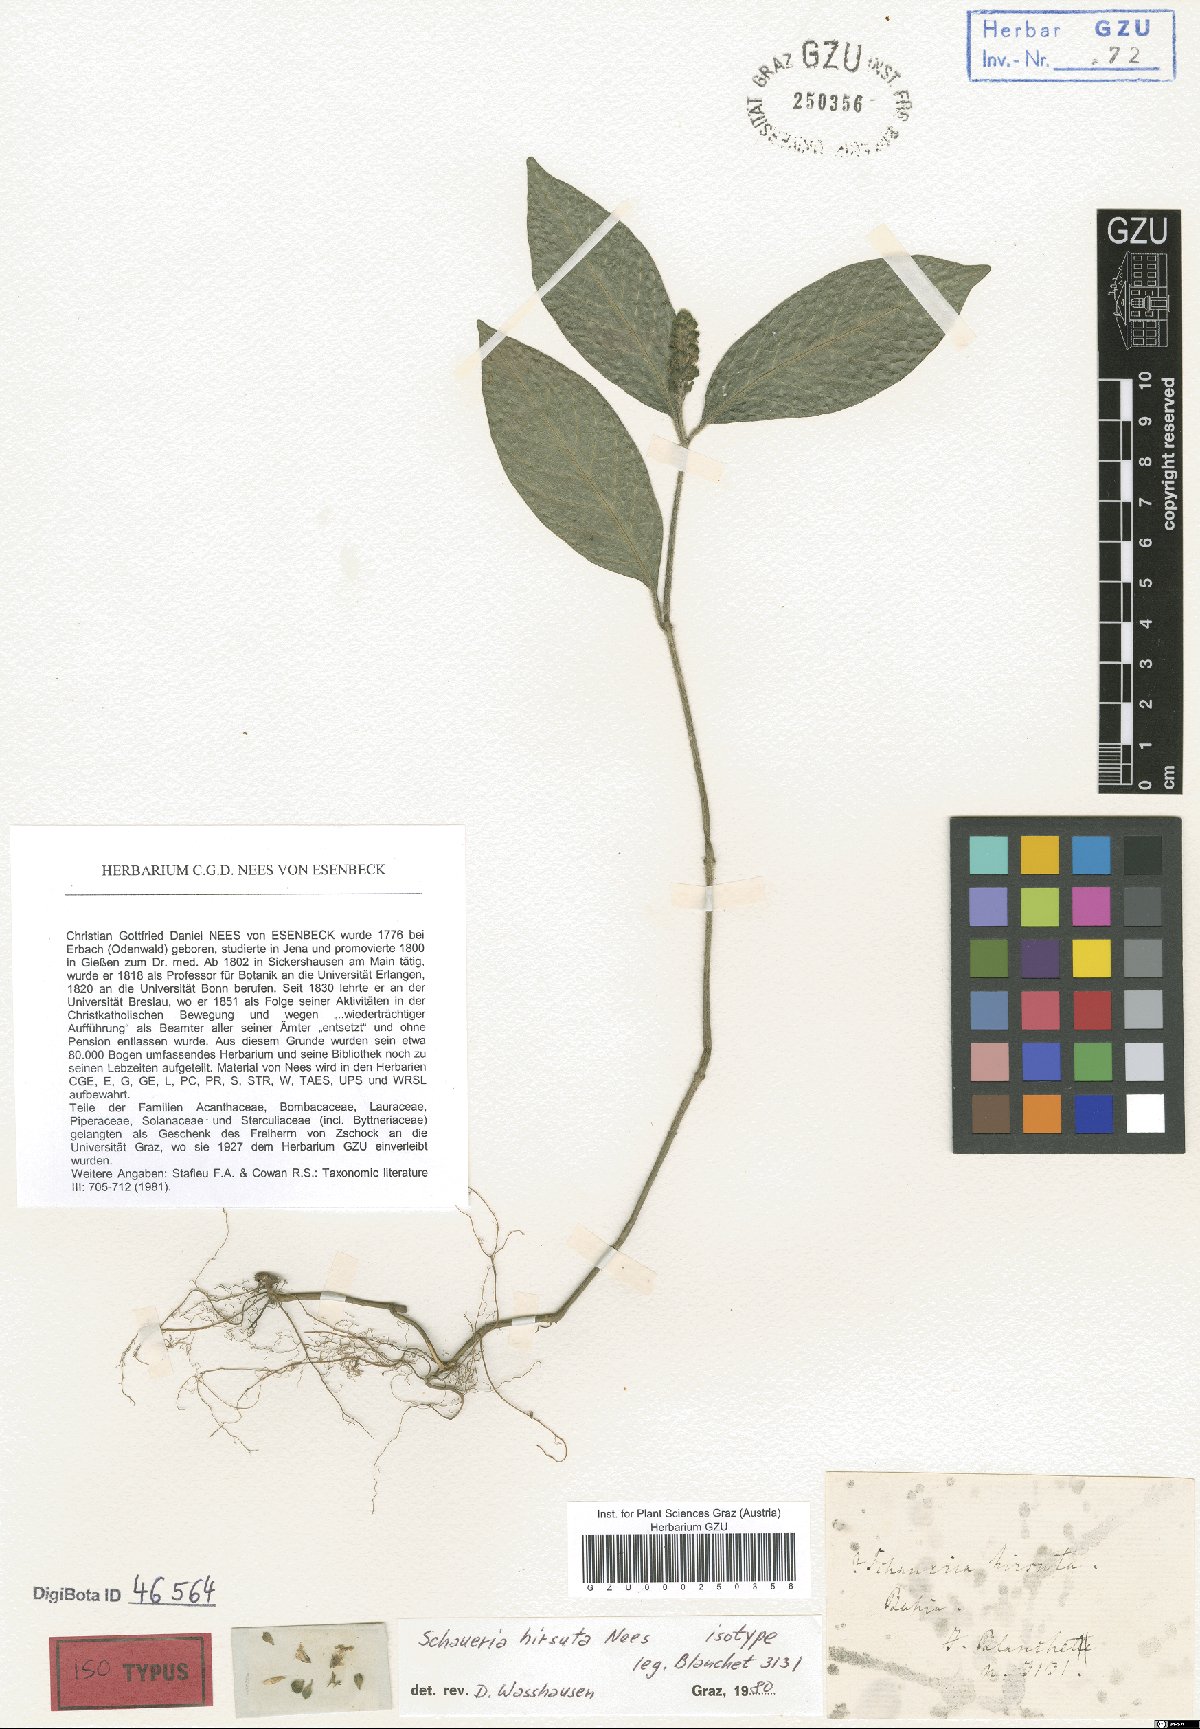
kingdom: Plantae
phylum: Tracheophyta
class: Magnoliopsida
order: Lamiales
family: Acanthaceae
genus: Justicia
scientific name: Justicia ilhensis
